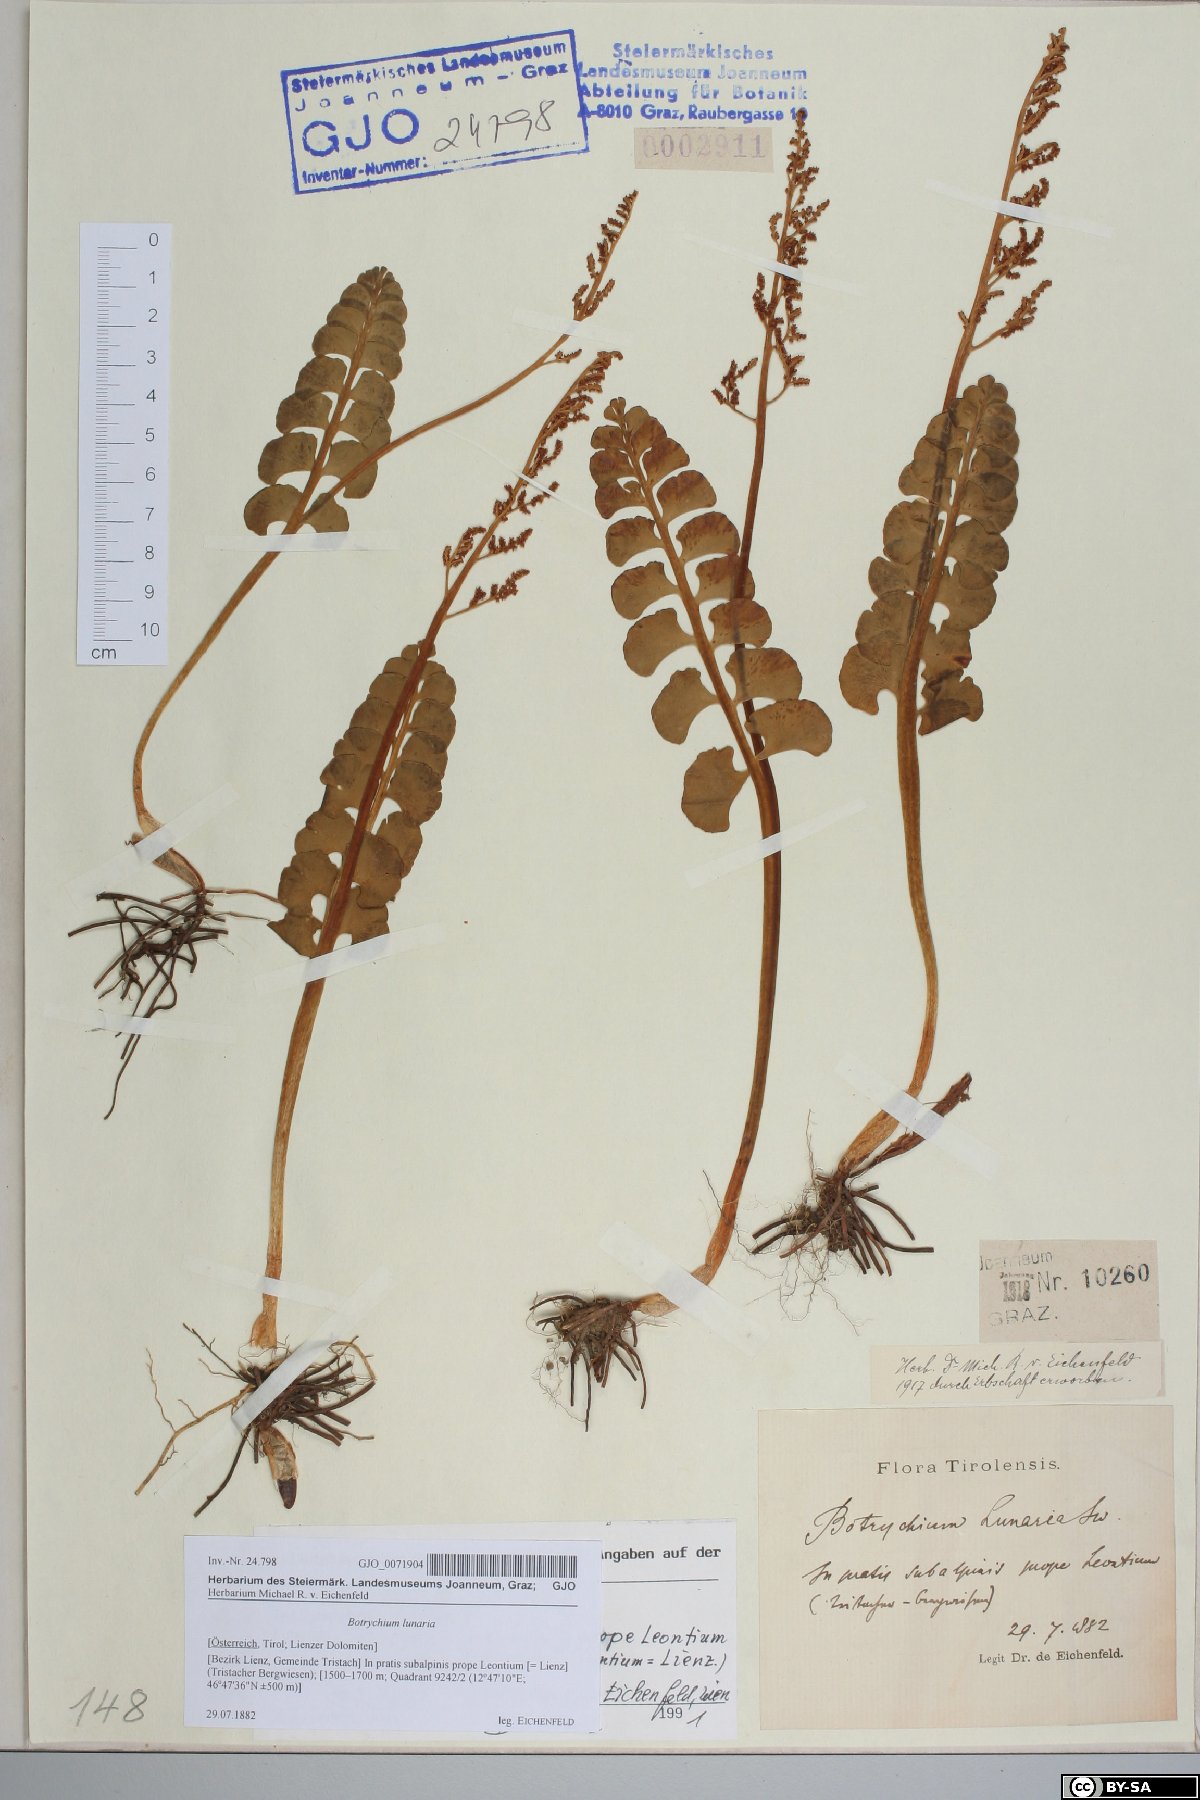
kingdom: Plantae
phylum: Tracheophyta
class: Polypodiopsida
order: Ophioglossales
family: Ophioglossaceae
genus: Botrychium
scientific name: Botrychium lunaria
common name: Moonwort
